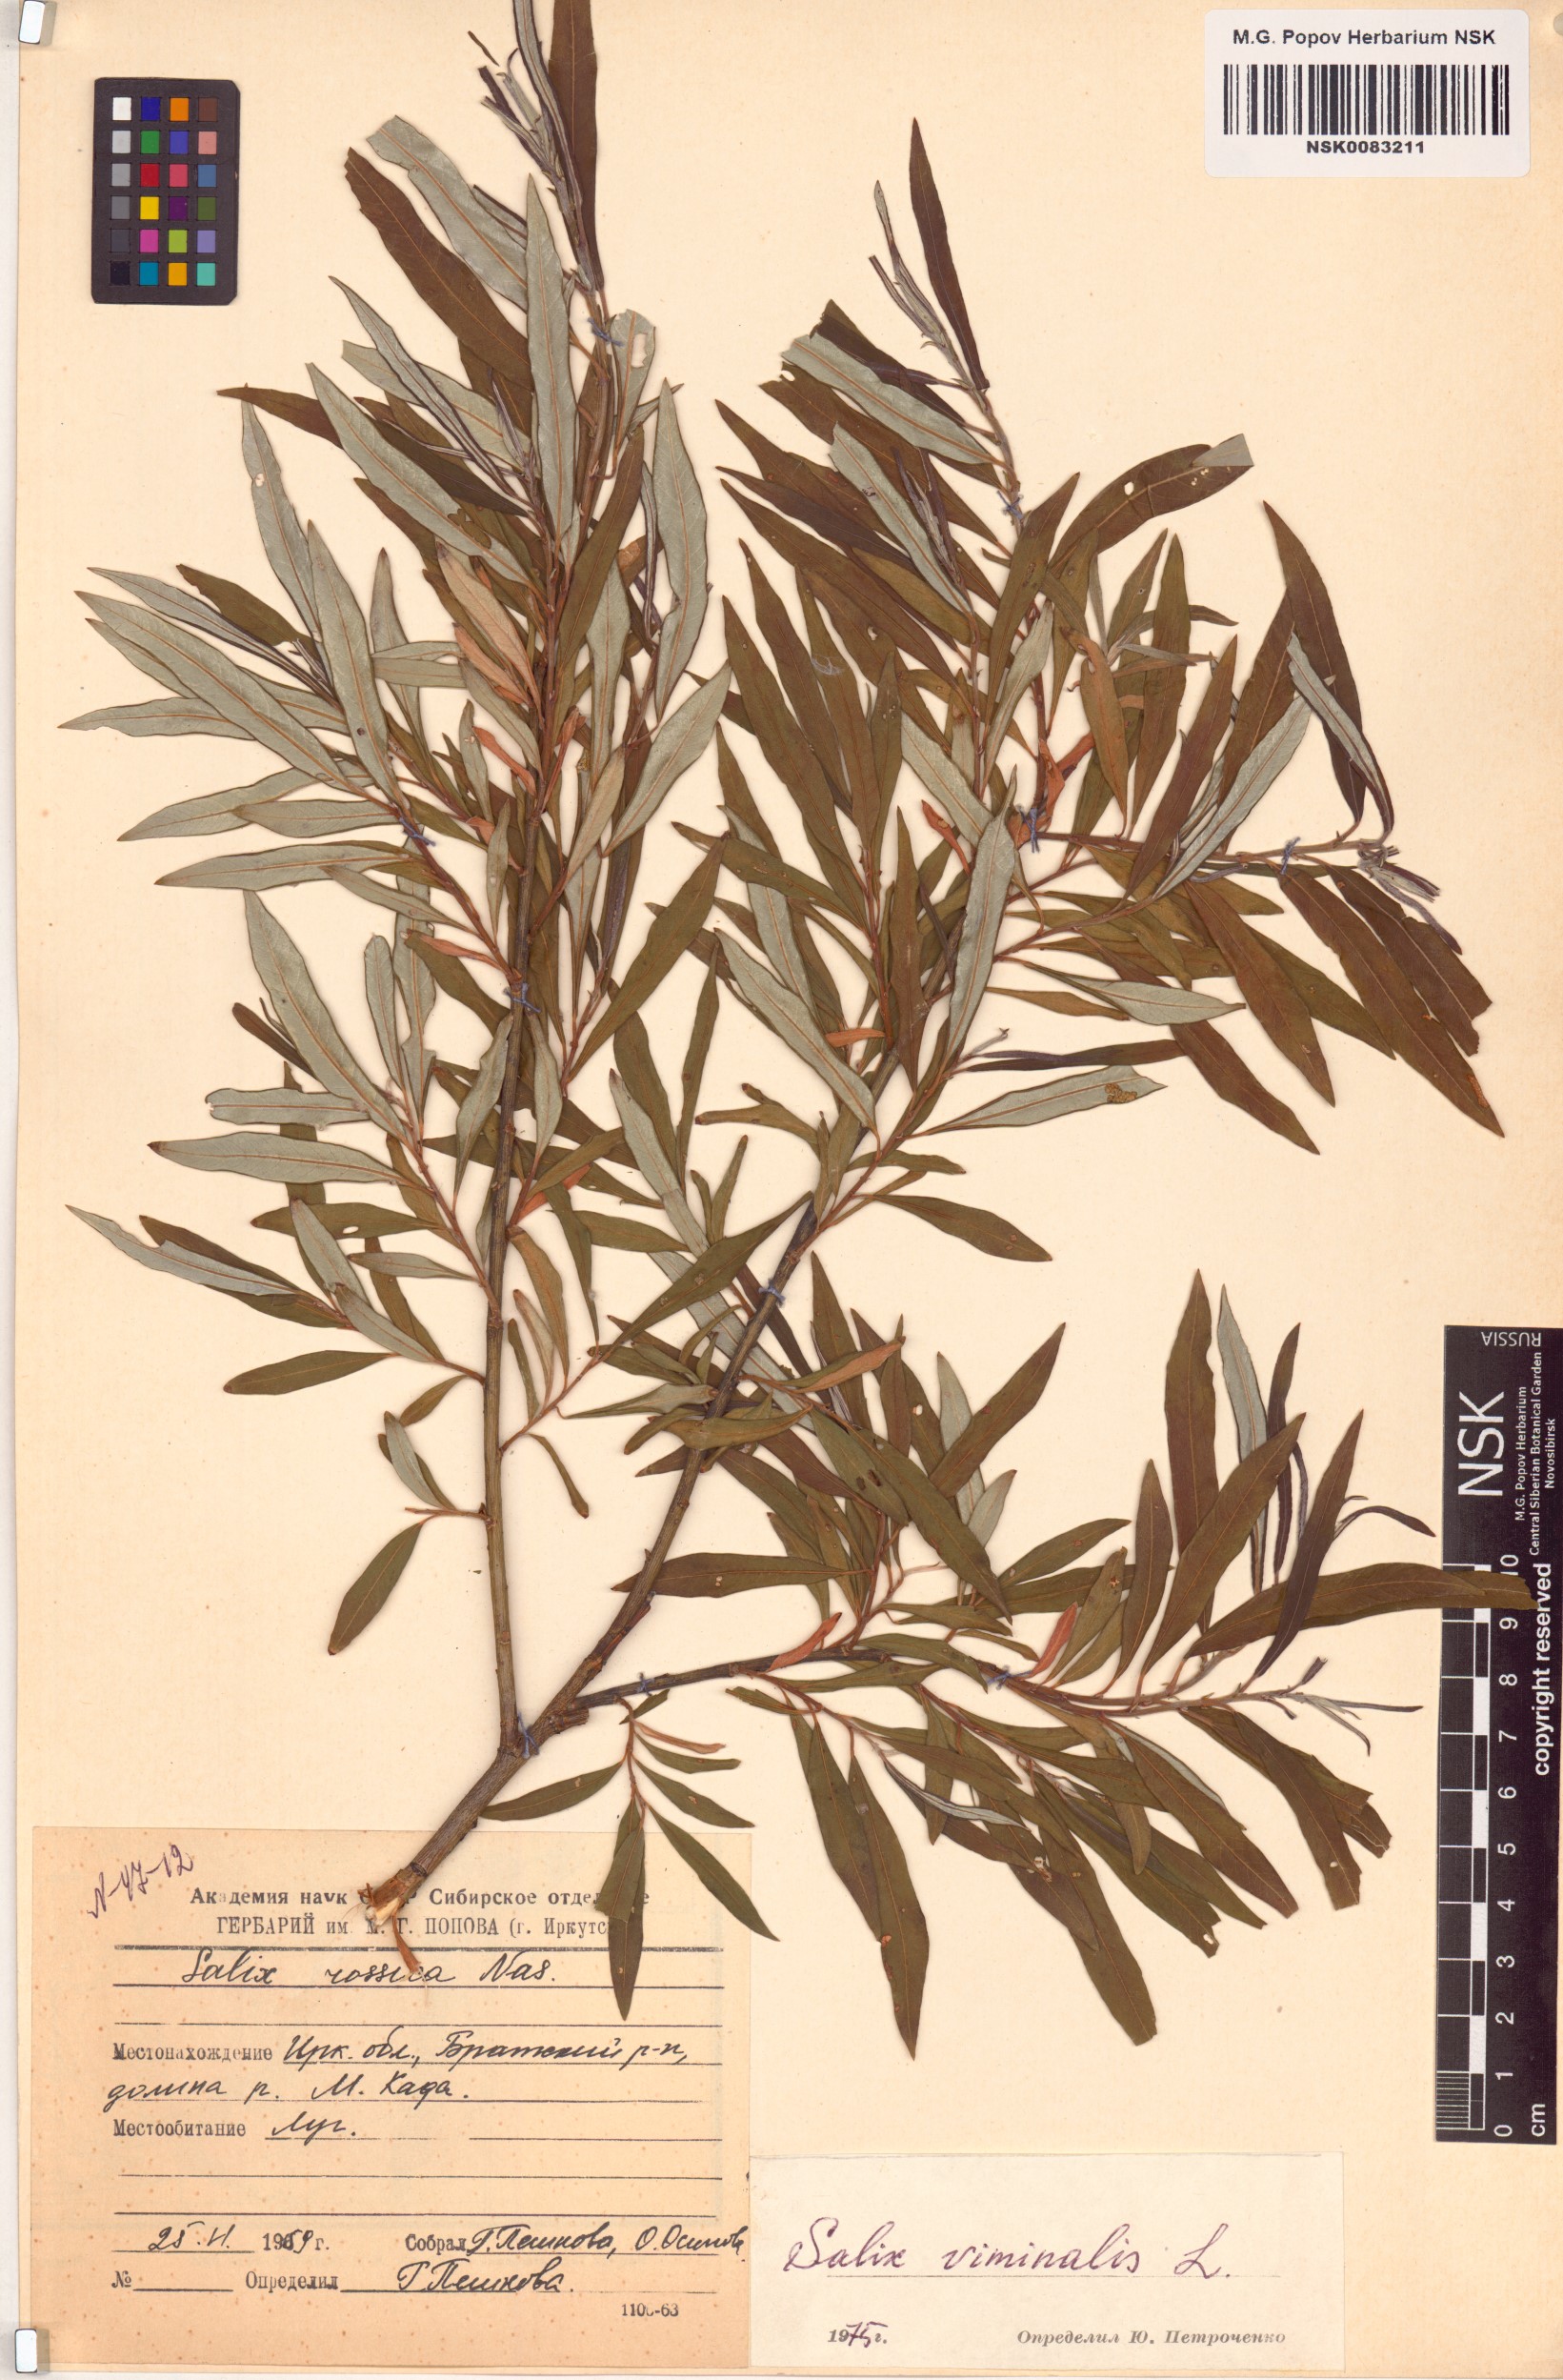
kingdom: Plantae
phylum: Tracheophyta
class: Magnoliopsida
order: Malpighiales
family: Salicaceae
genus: Salix
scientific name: Salix viminalis
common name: Osier
